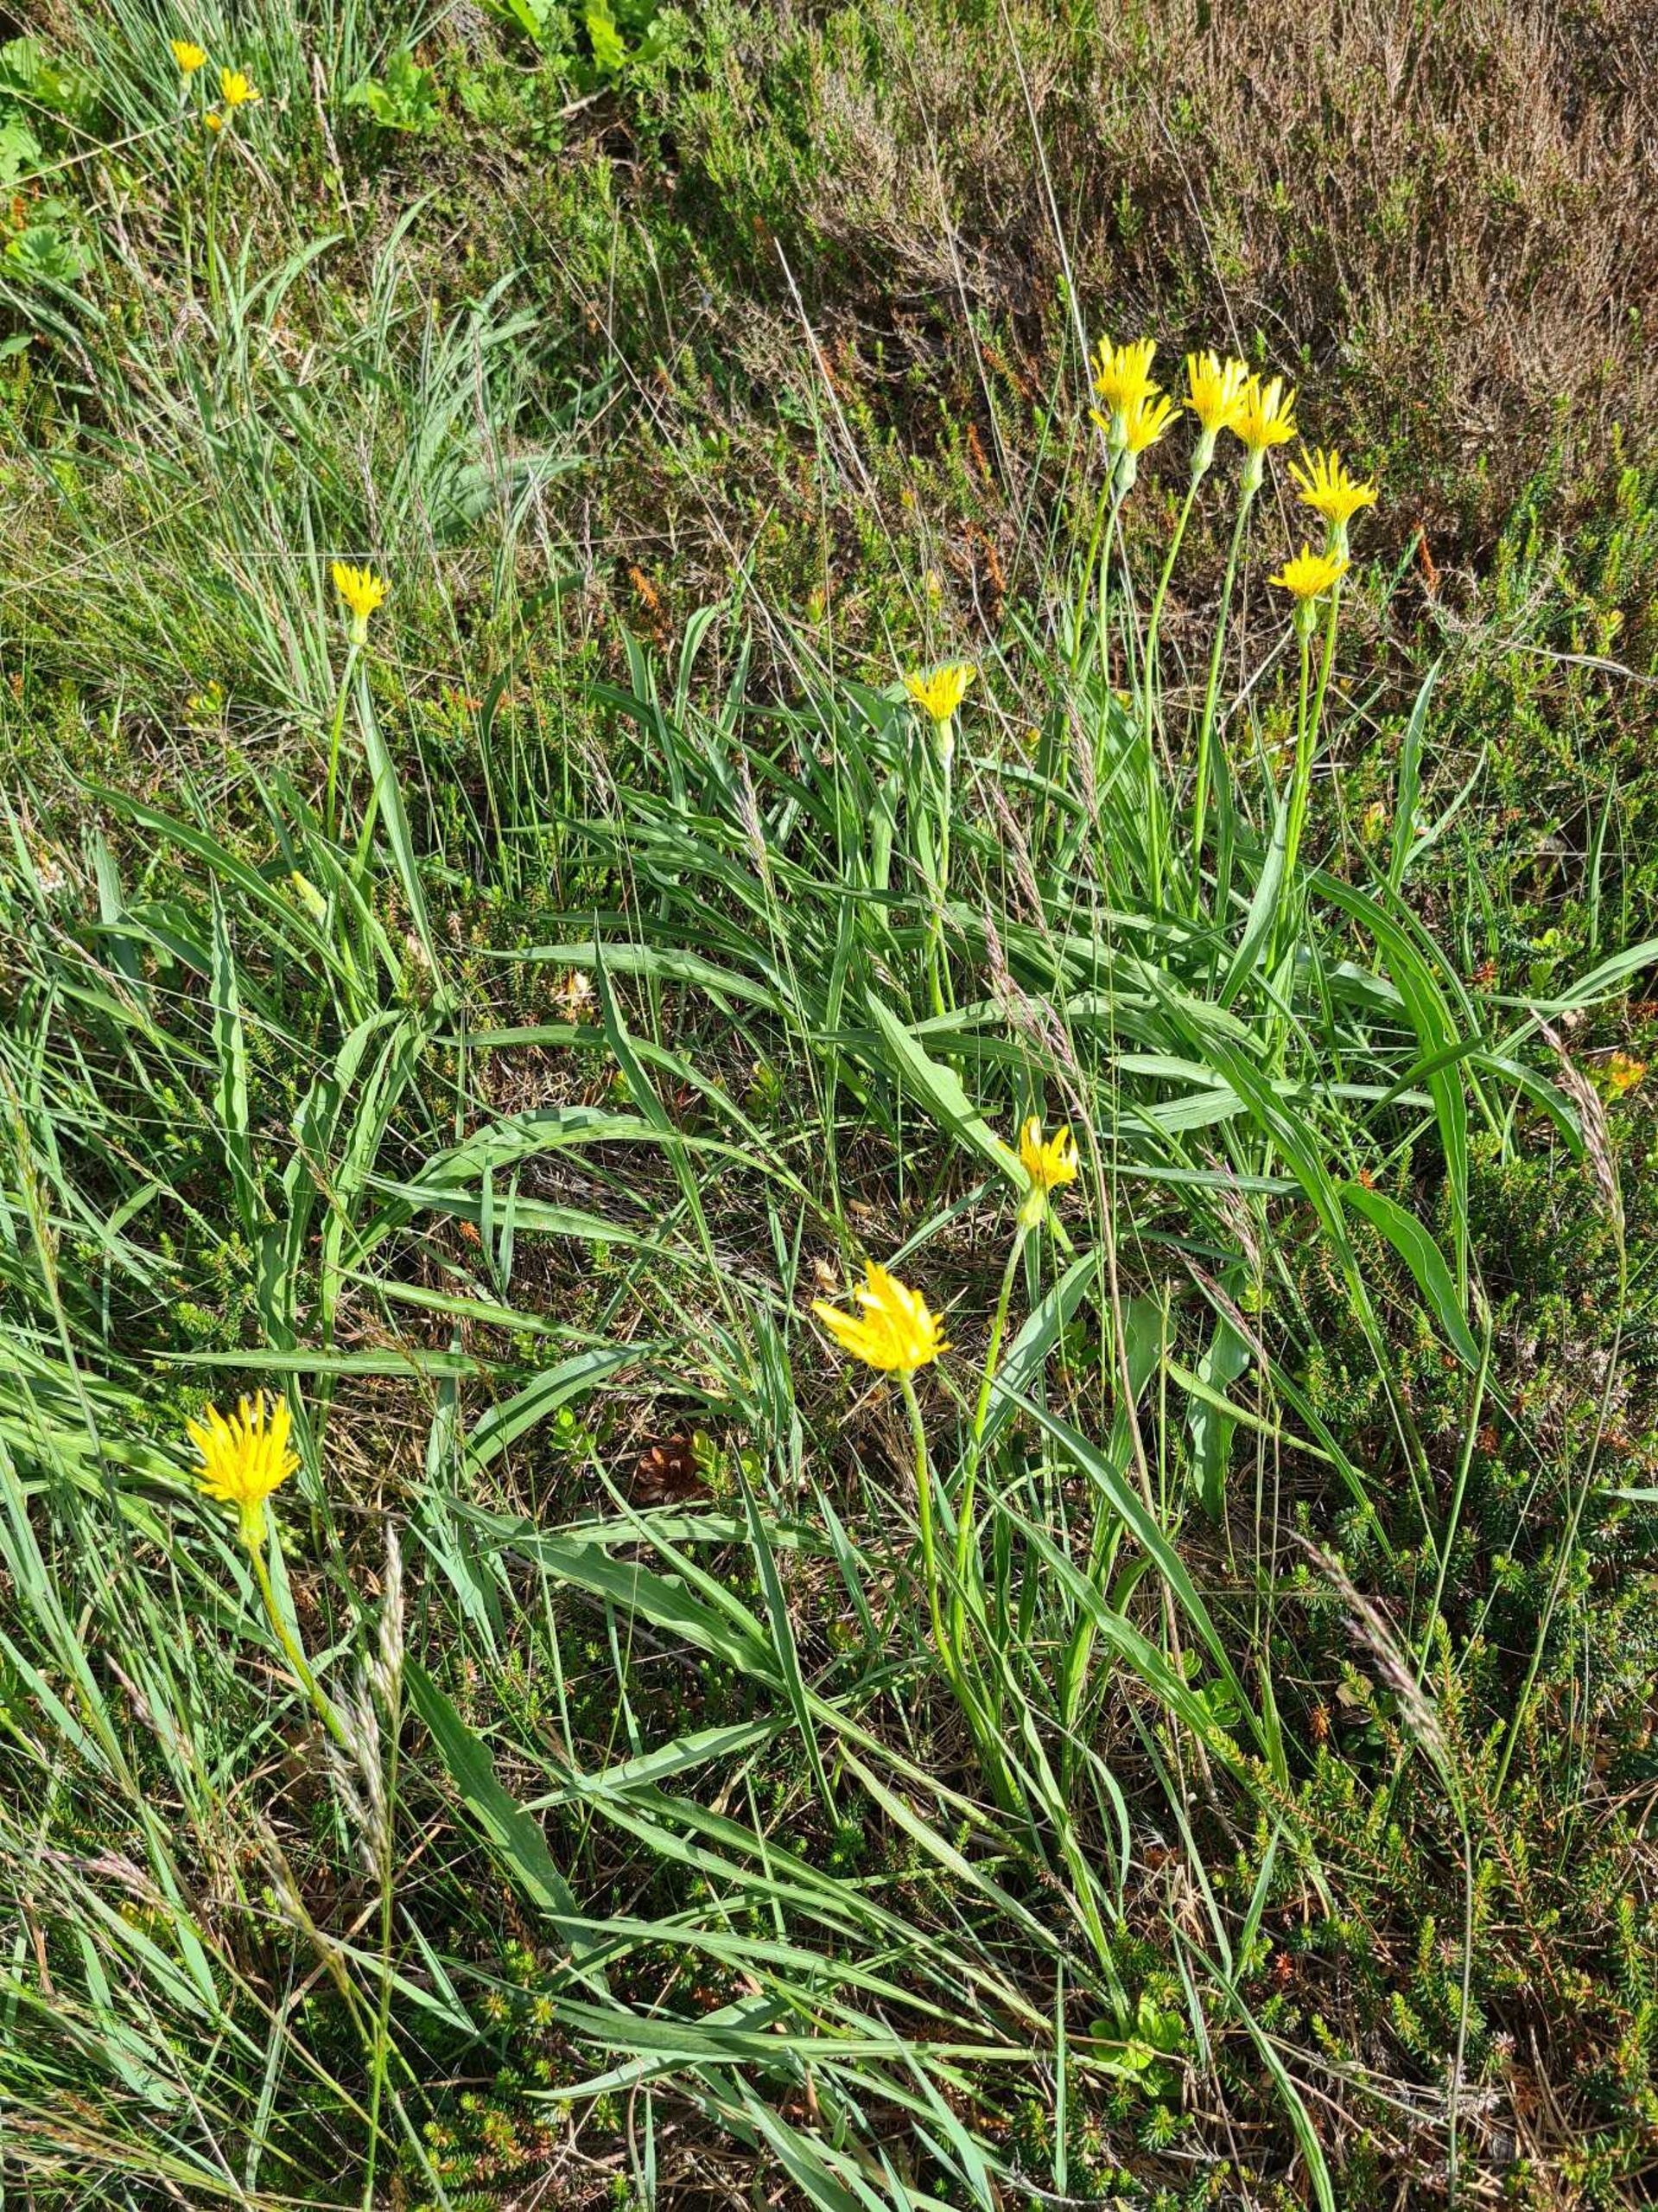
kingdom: Plantae
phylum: Tracheophyta
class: Magnoliopsida
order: Asterales
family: Asteraceae
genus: Scorzonera
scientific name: Scorzonera humilis
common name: Lav skorsoner
